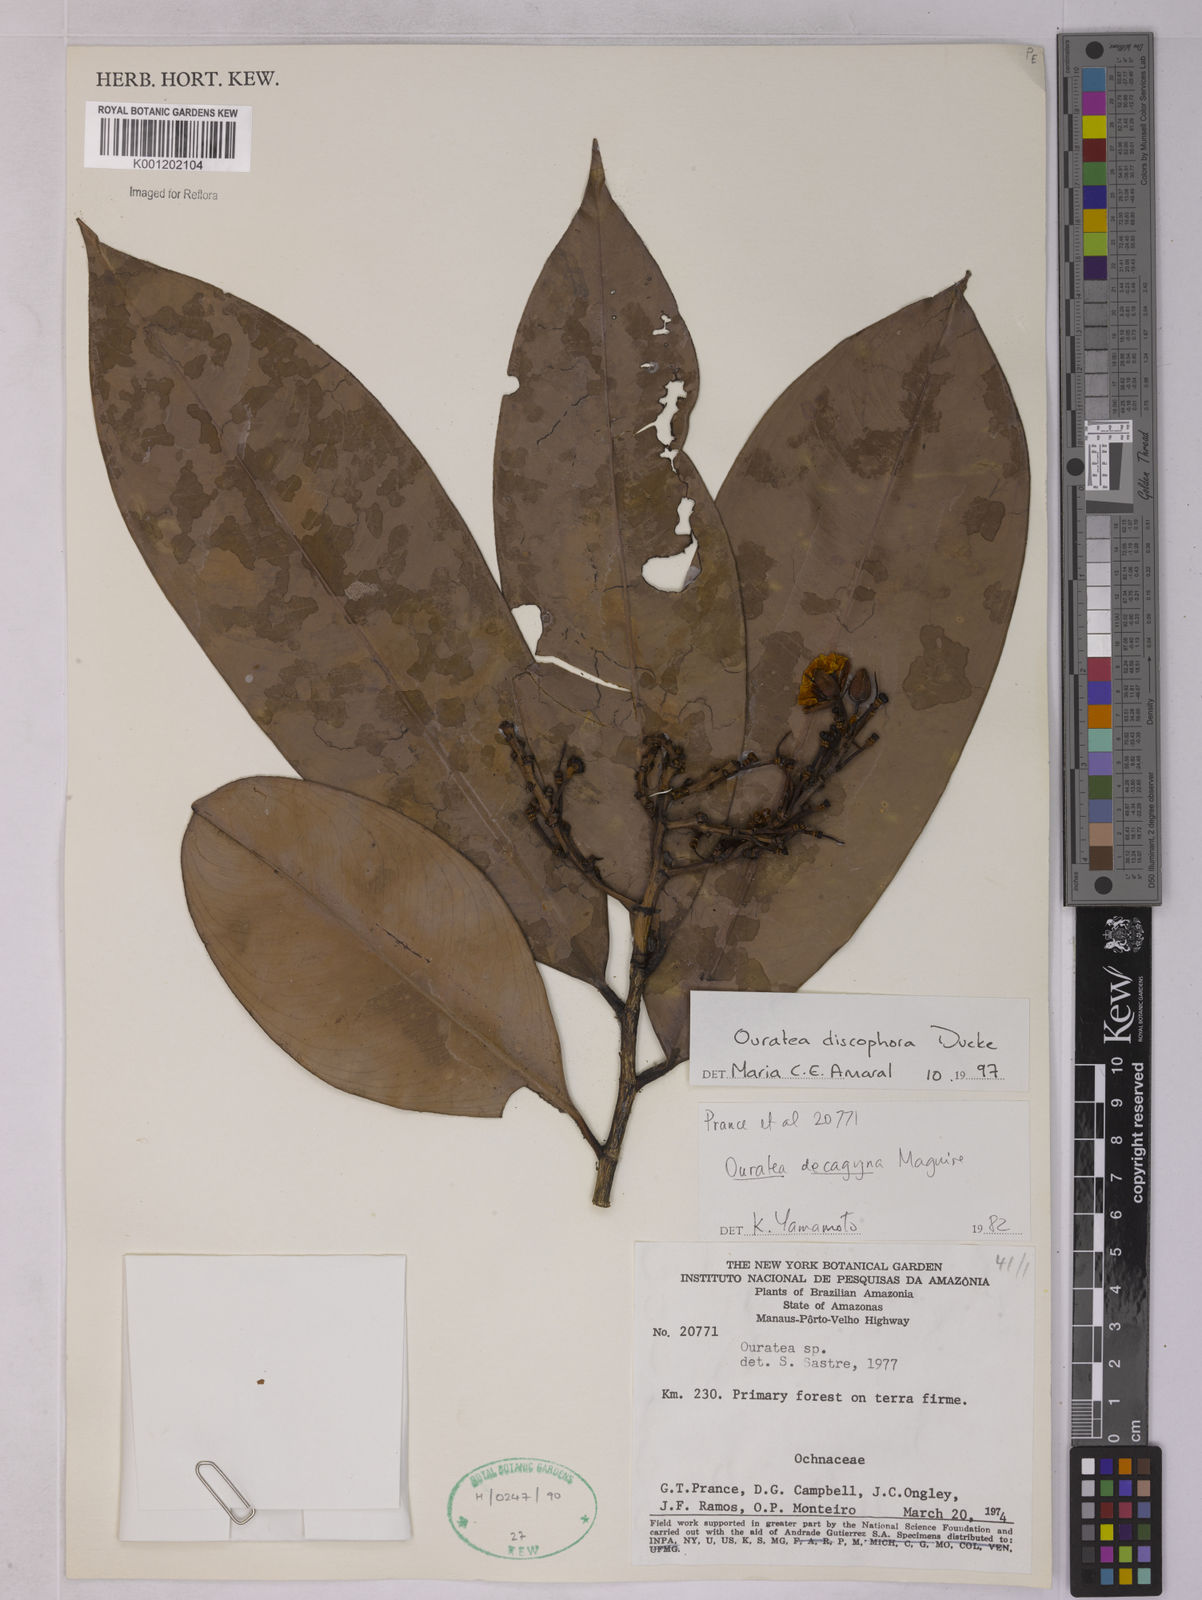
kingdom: Plantae
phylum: Tracheophyta
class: Magnoliopsida
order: Malpighiales
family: Ochnaceae
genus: Ouratea
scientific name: Ouratea discophora
